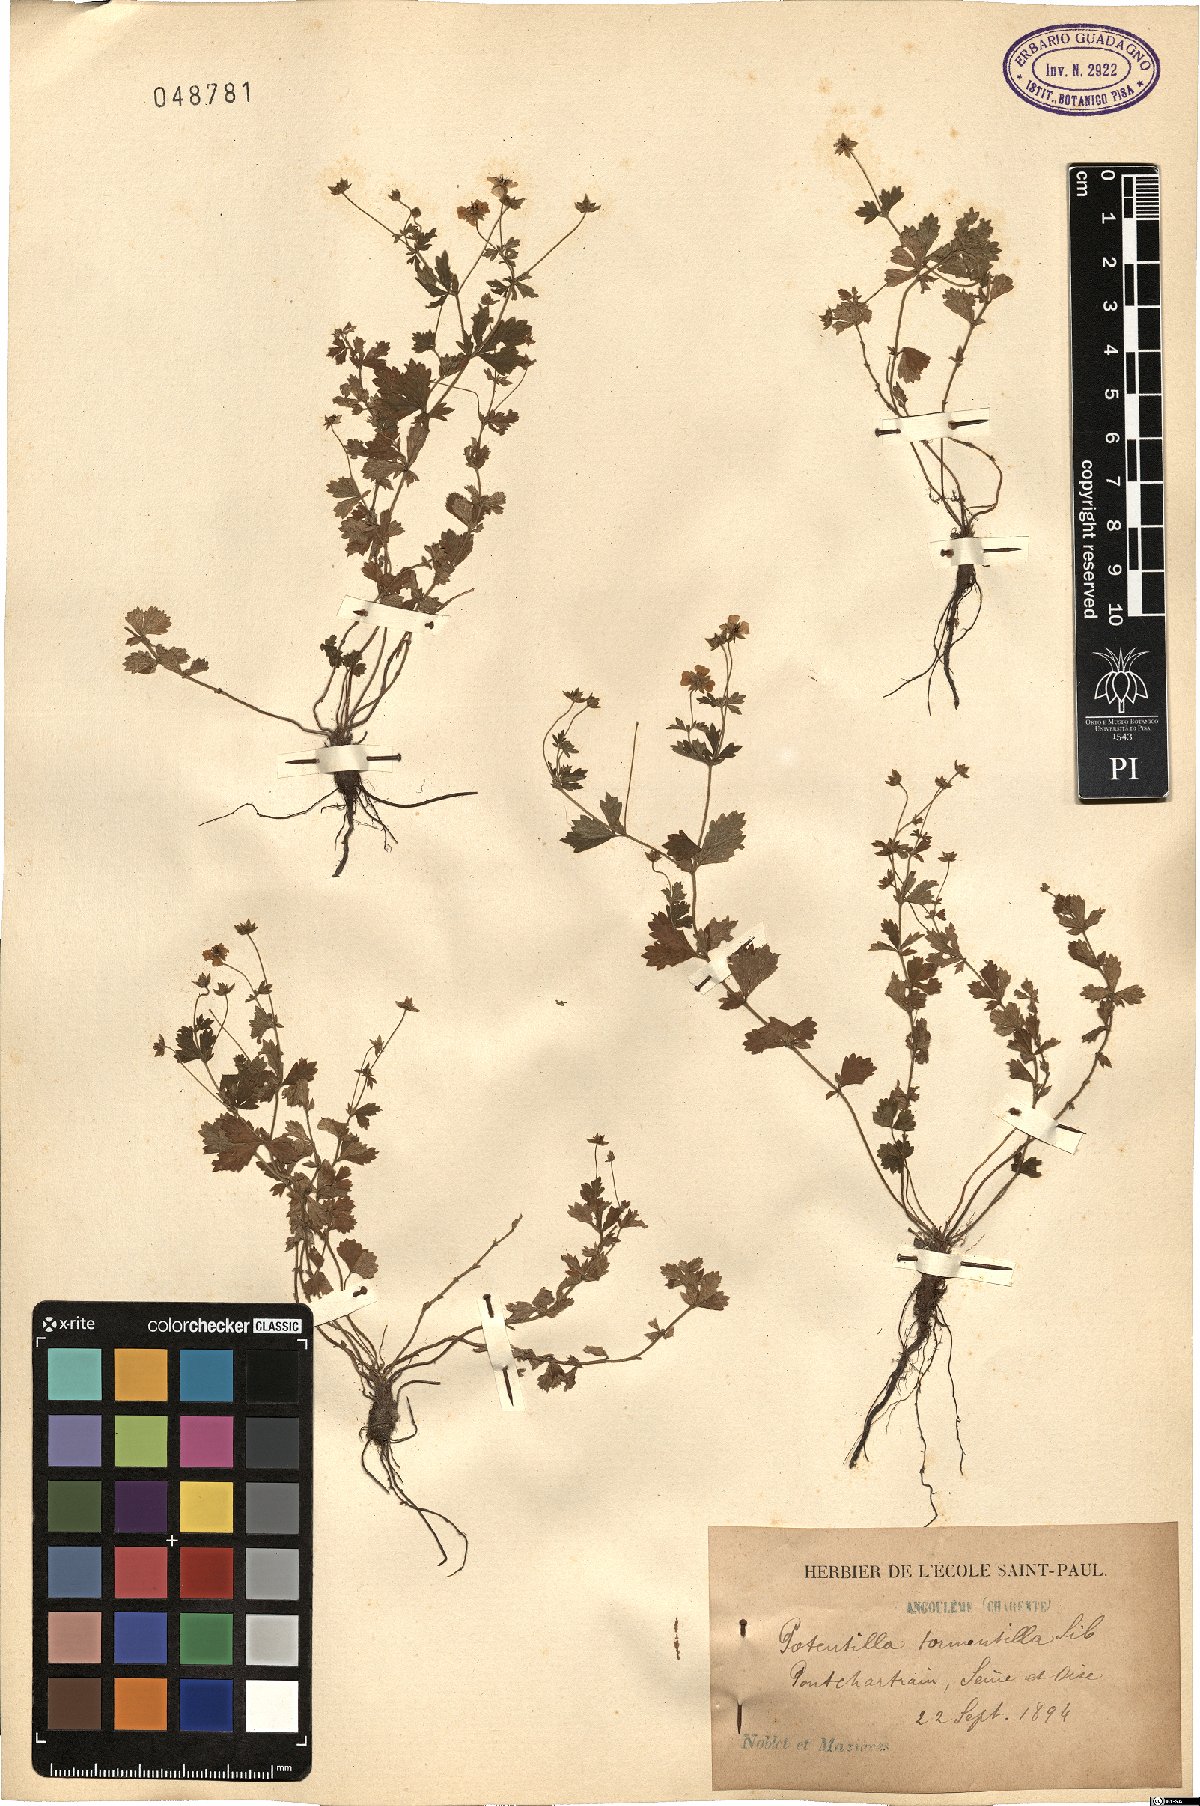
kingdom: Plantae
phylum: Tracheophyta
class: Magnoliopsida
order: Rosales
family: Rosaceae
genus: Potentilla
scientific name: Potentilla erecta
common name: Tormentil
